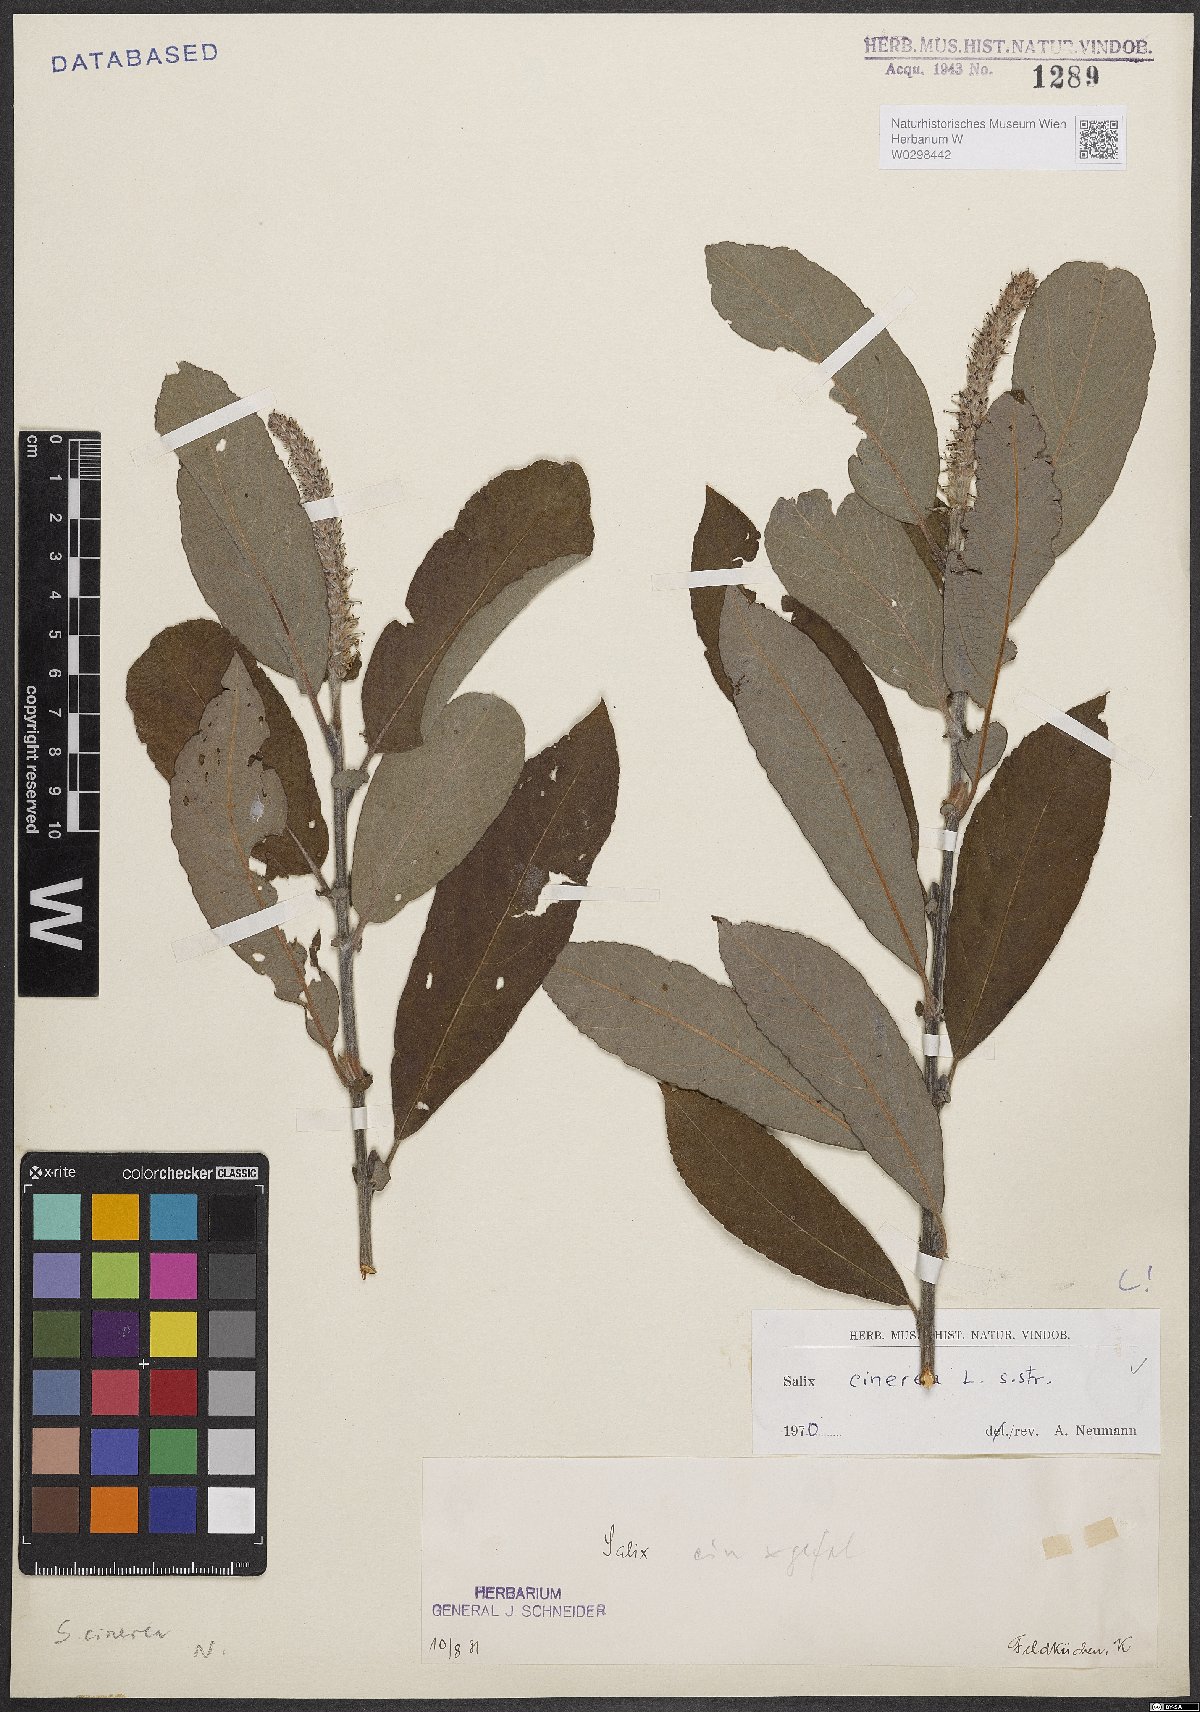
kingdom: Plantae
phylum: Tracheophyta
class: Magnoliopsida
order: Malpighiales
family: Salicaceae
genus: Salix
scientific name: Salix cinerea
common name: Common sallow
